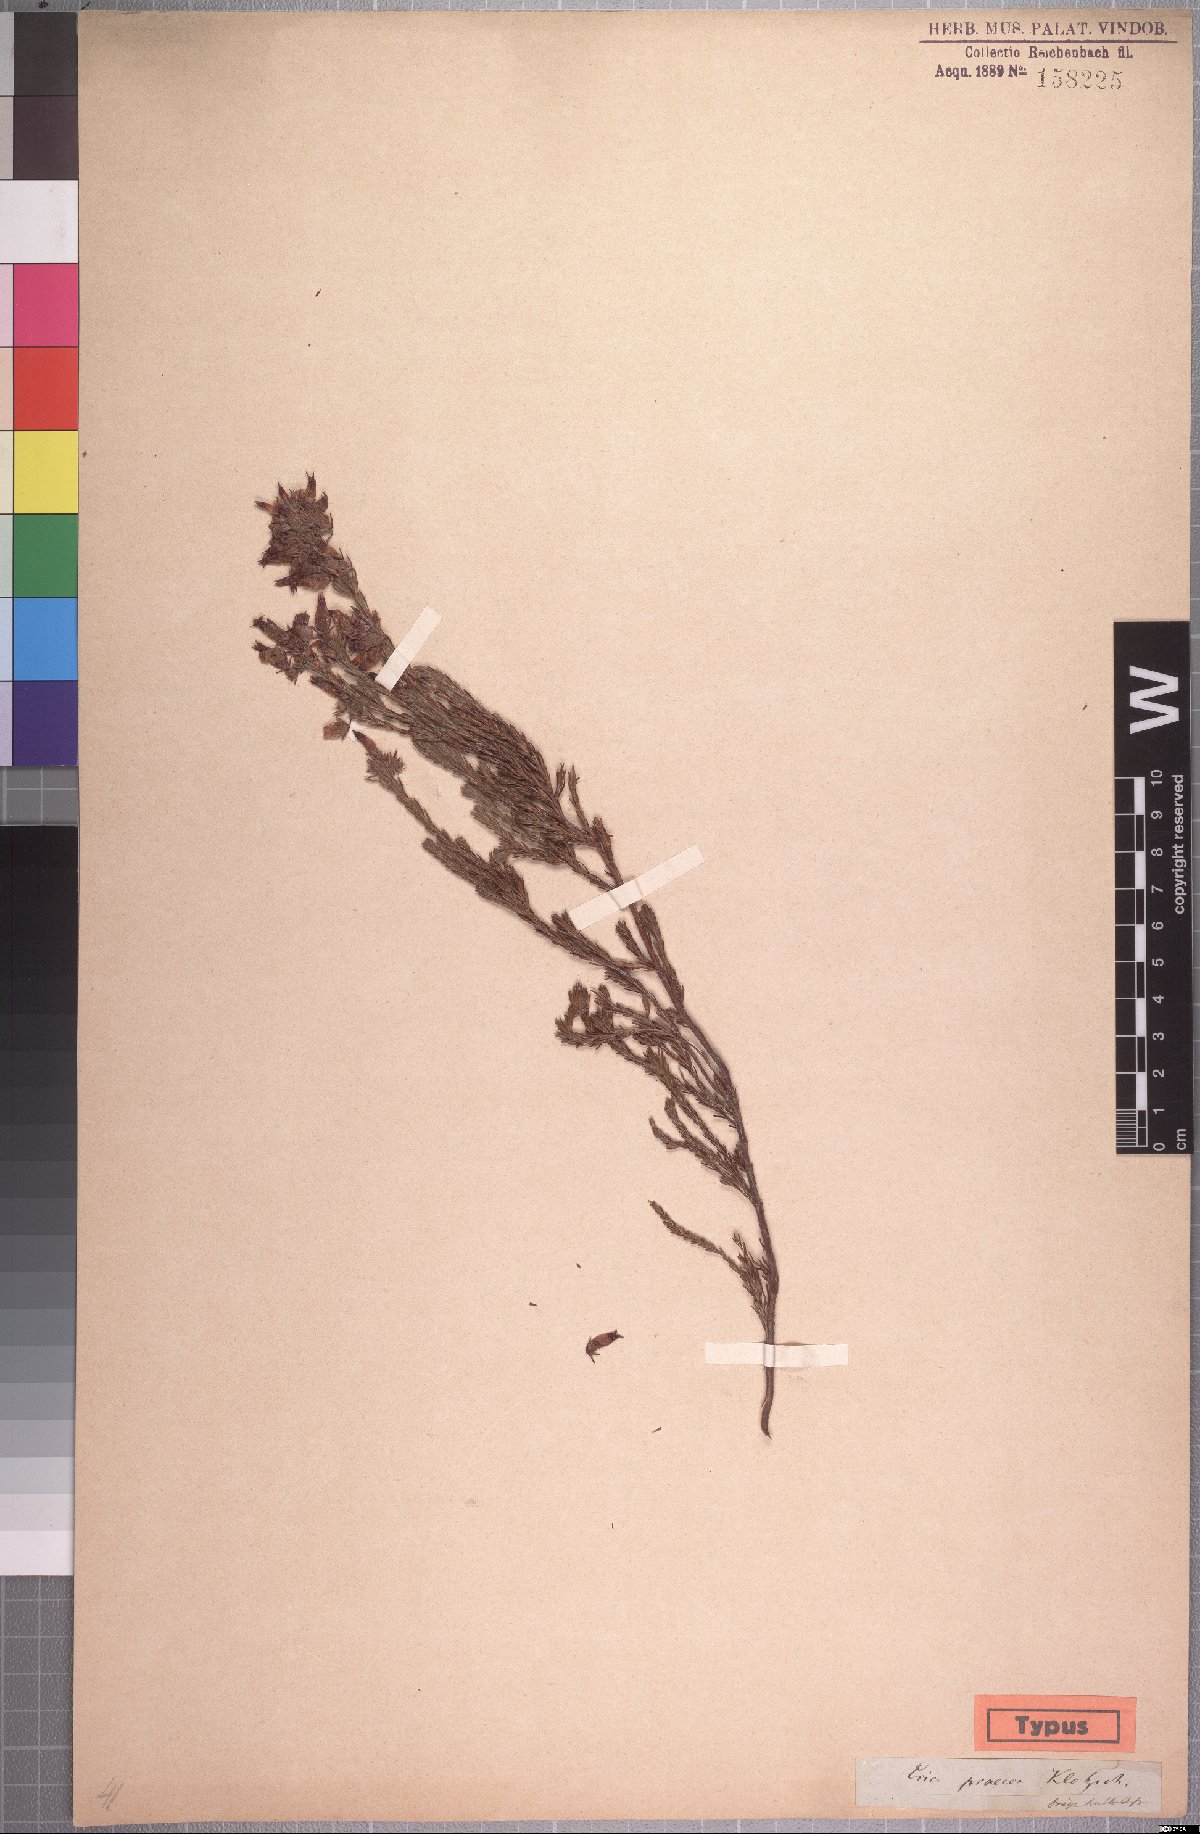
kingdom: Plantae
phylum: Tracheophyta
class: Magnoliopsida
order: Ericales
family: Ericaceae
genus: Erica
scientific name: Erica ventricosa
